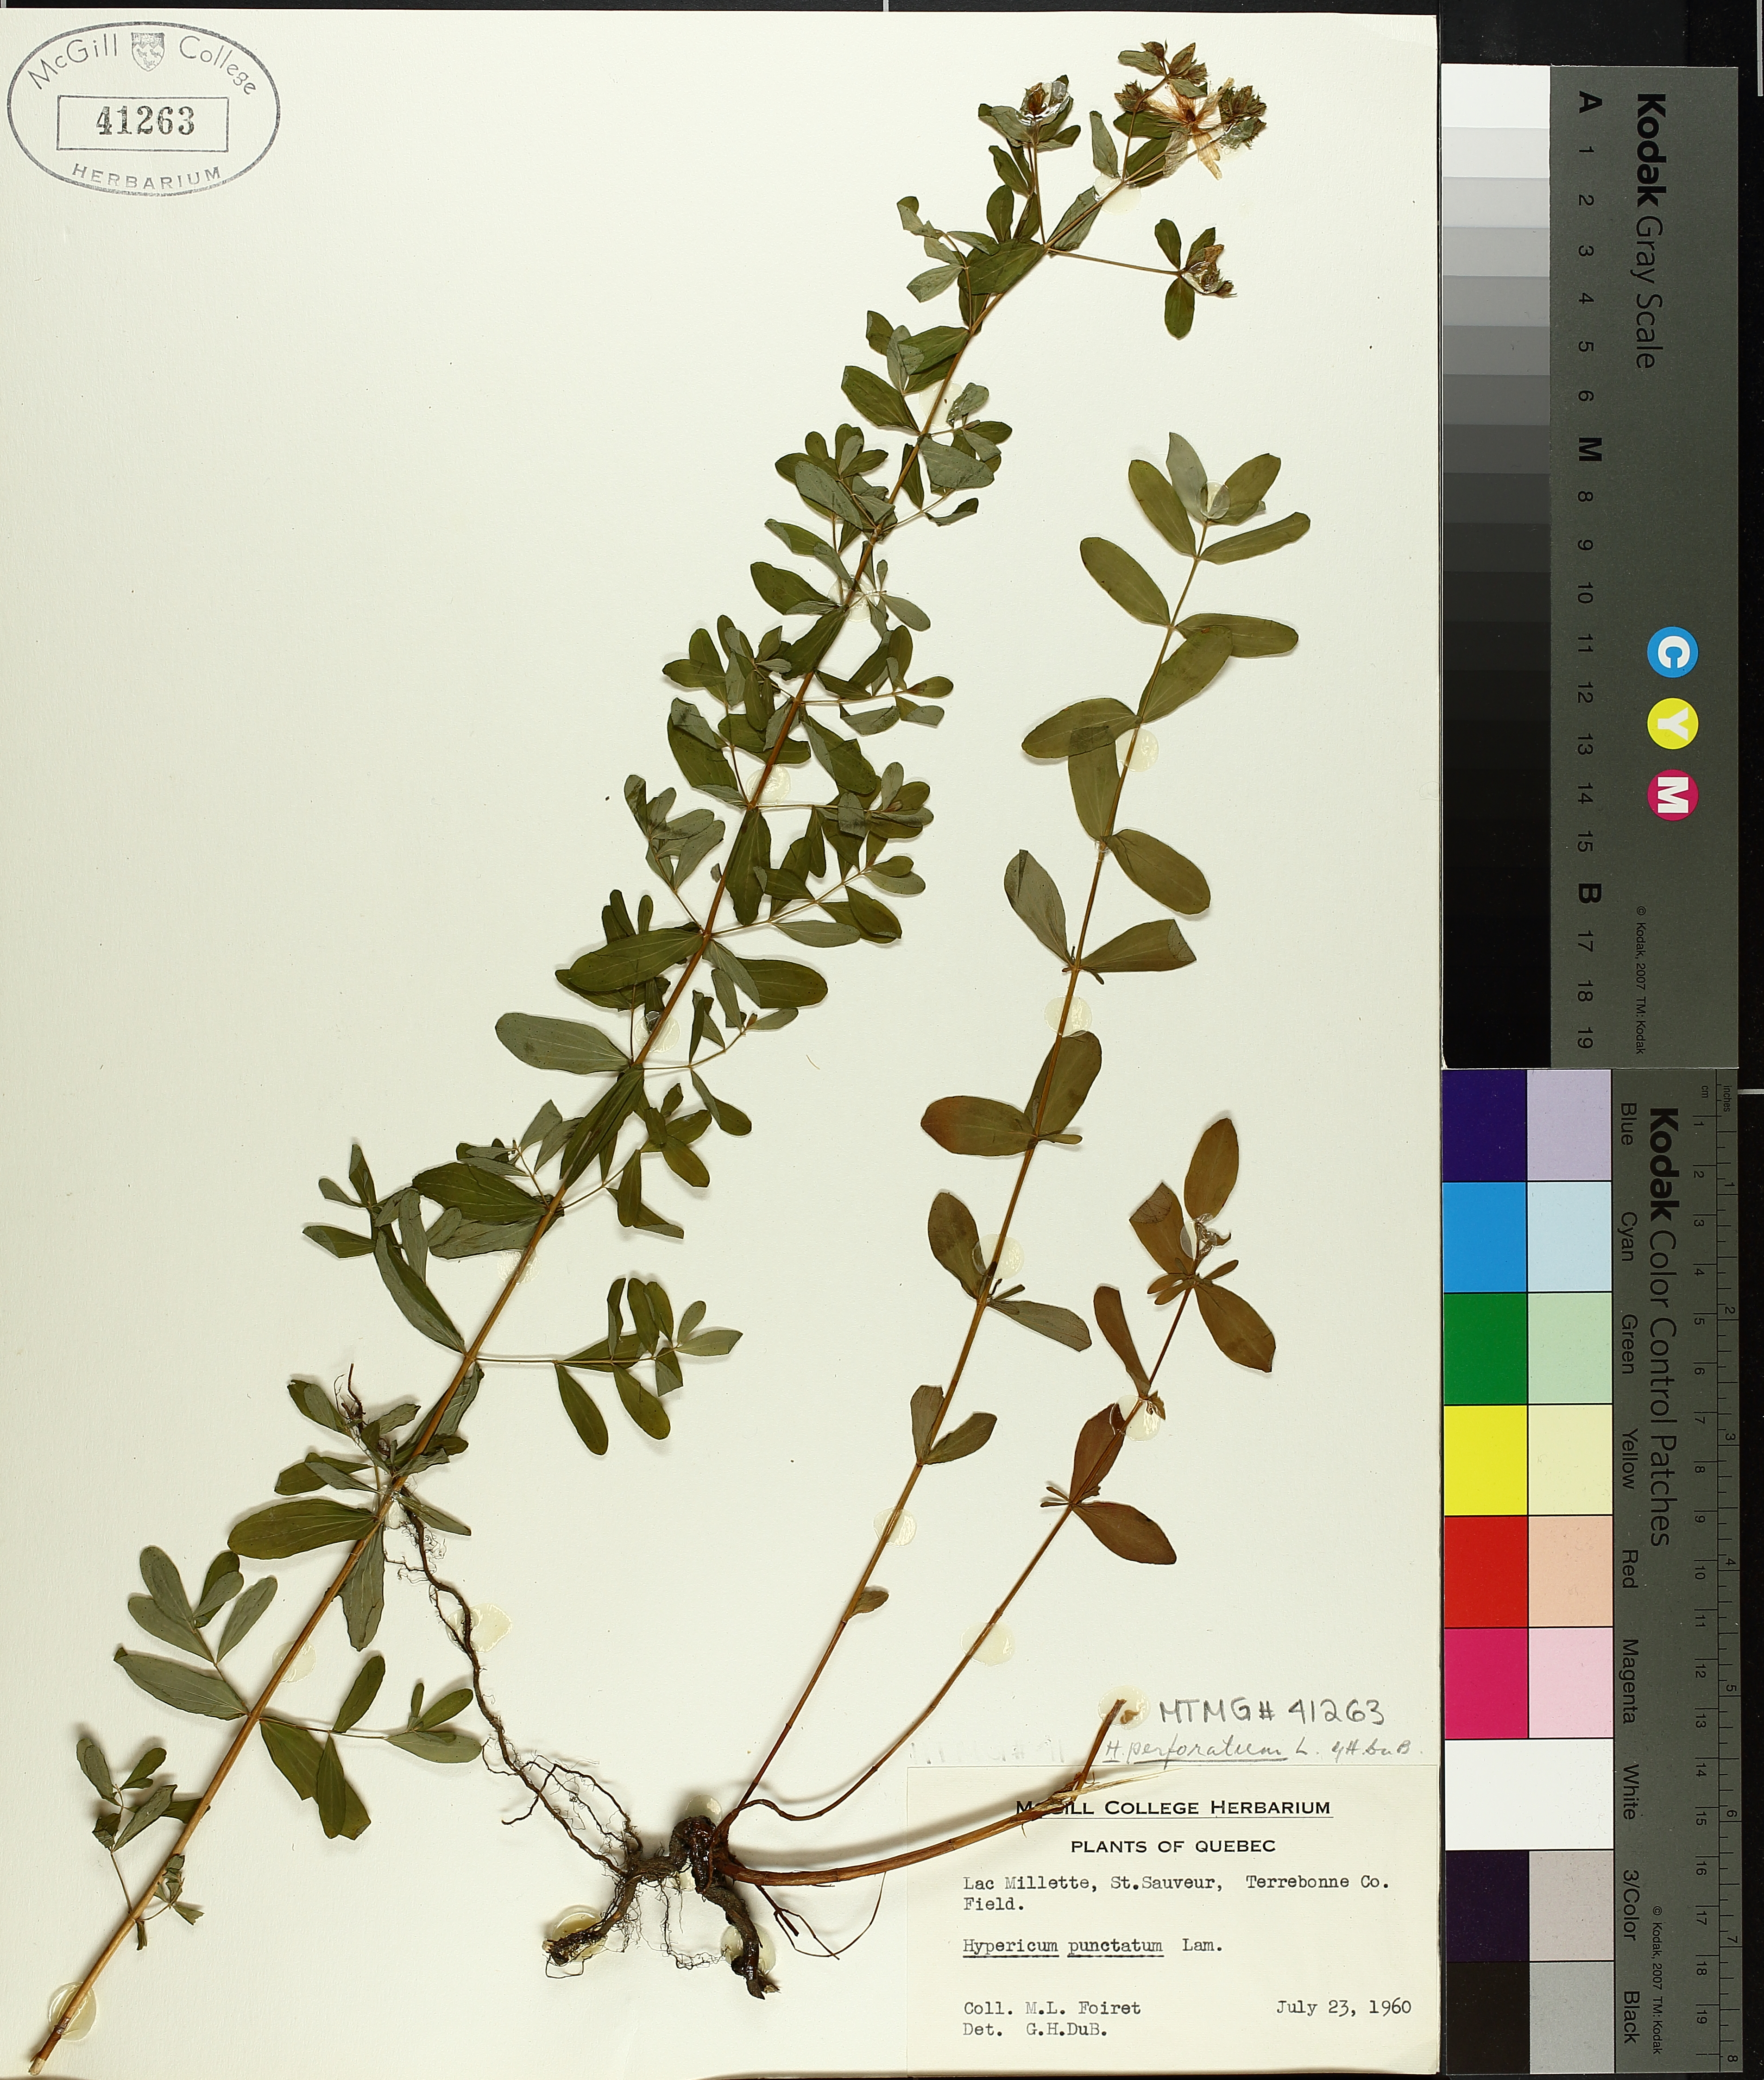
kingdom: Plantae
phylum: Tracheophyta
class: Magnoliopsida
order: Malpighiales
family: Hypericaceae
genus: Hypericum
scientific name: Hypericum perforatum
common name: Common st. johnswort
